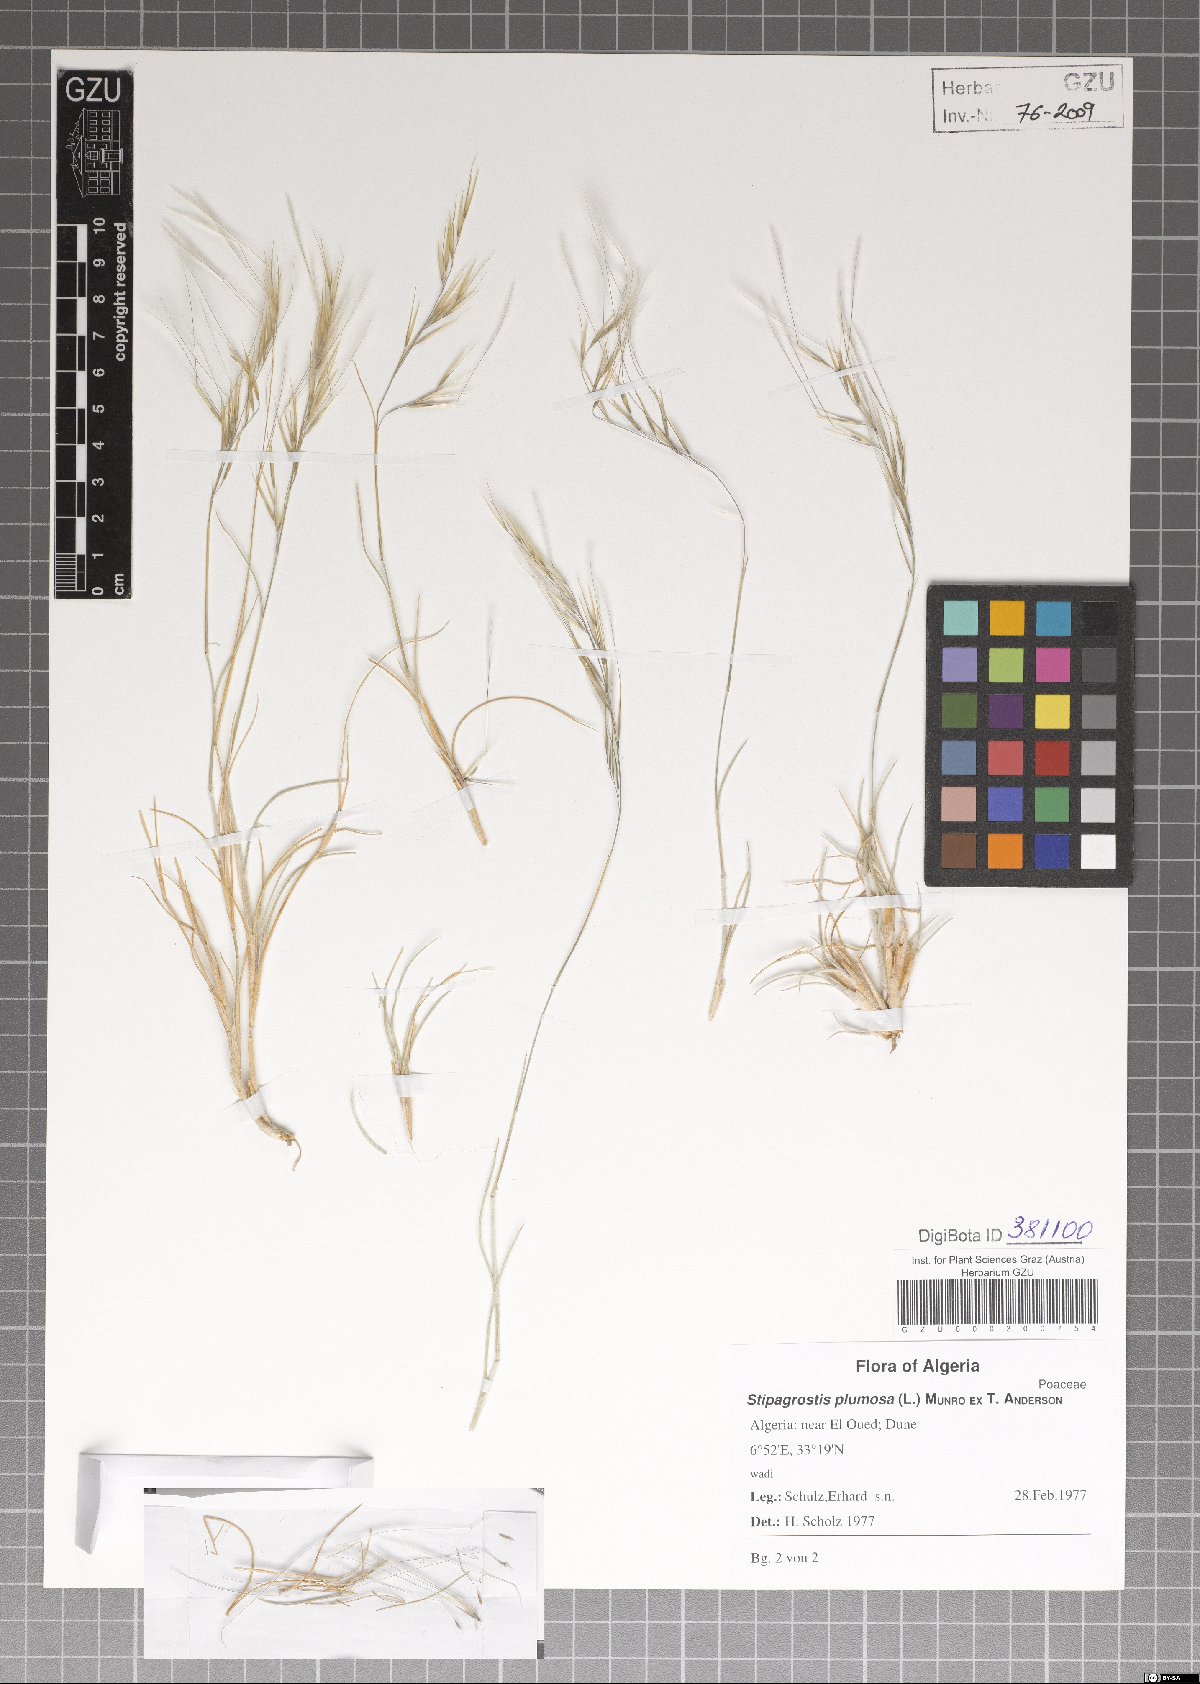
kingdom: Plantae
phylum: Tracheophyta
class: Liliopsida
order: Poales
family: Poaceae
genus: Stipagrostis
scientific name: Stipagrostis plumosa
